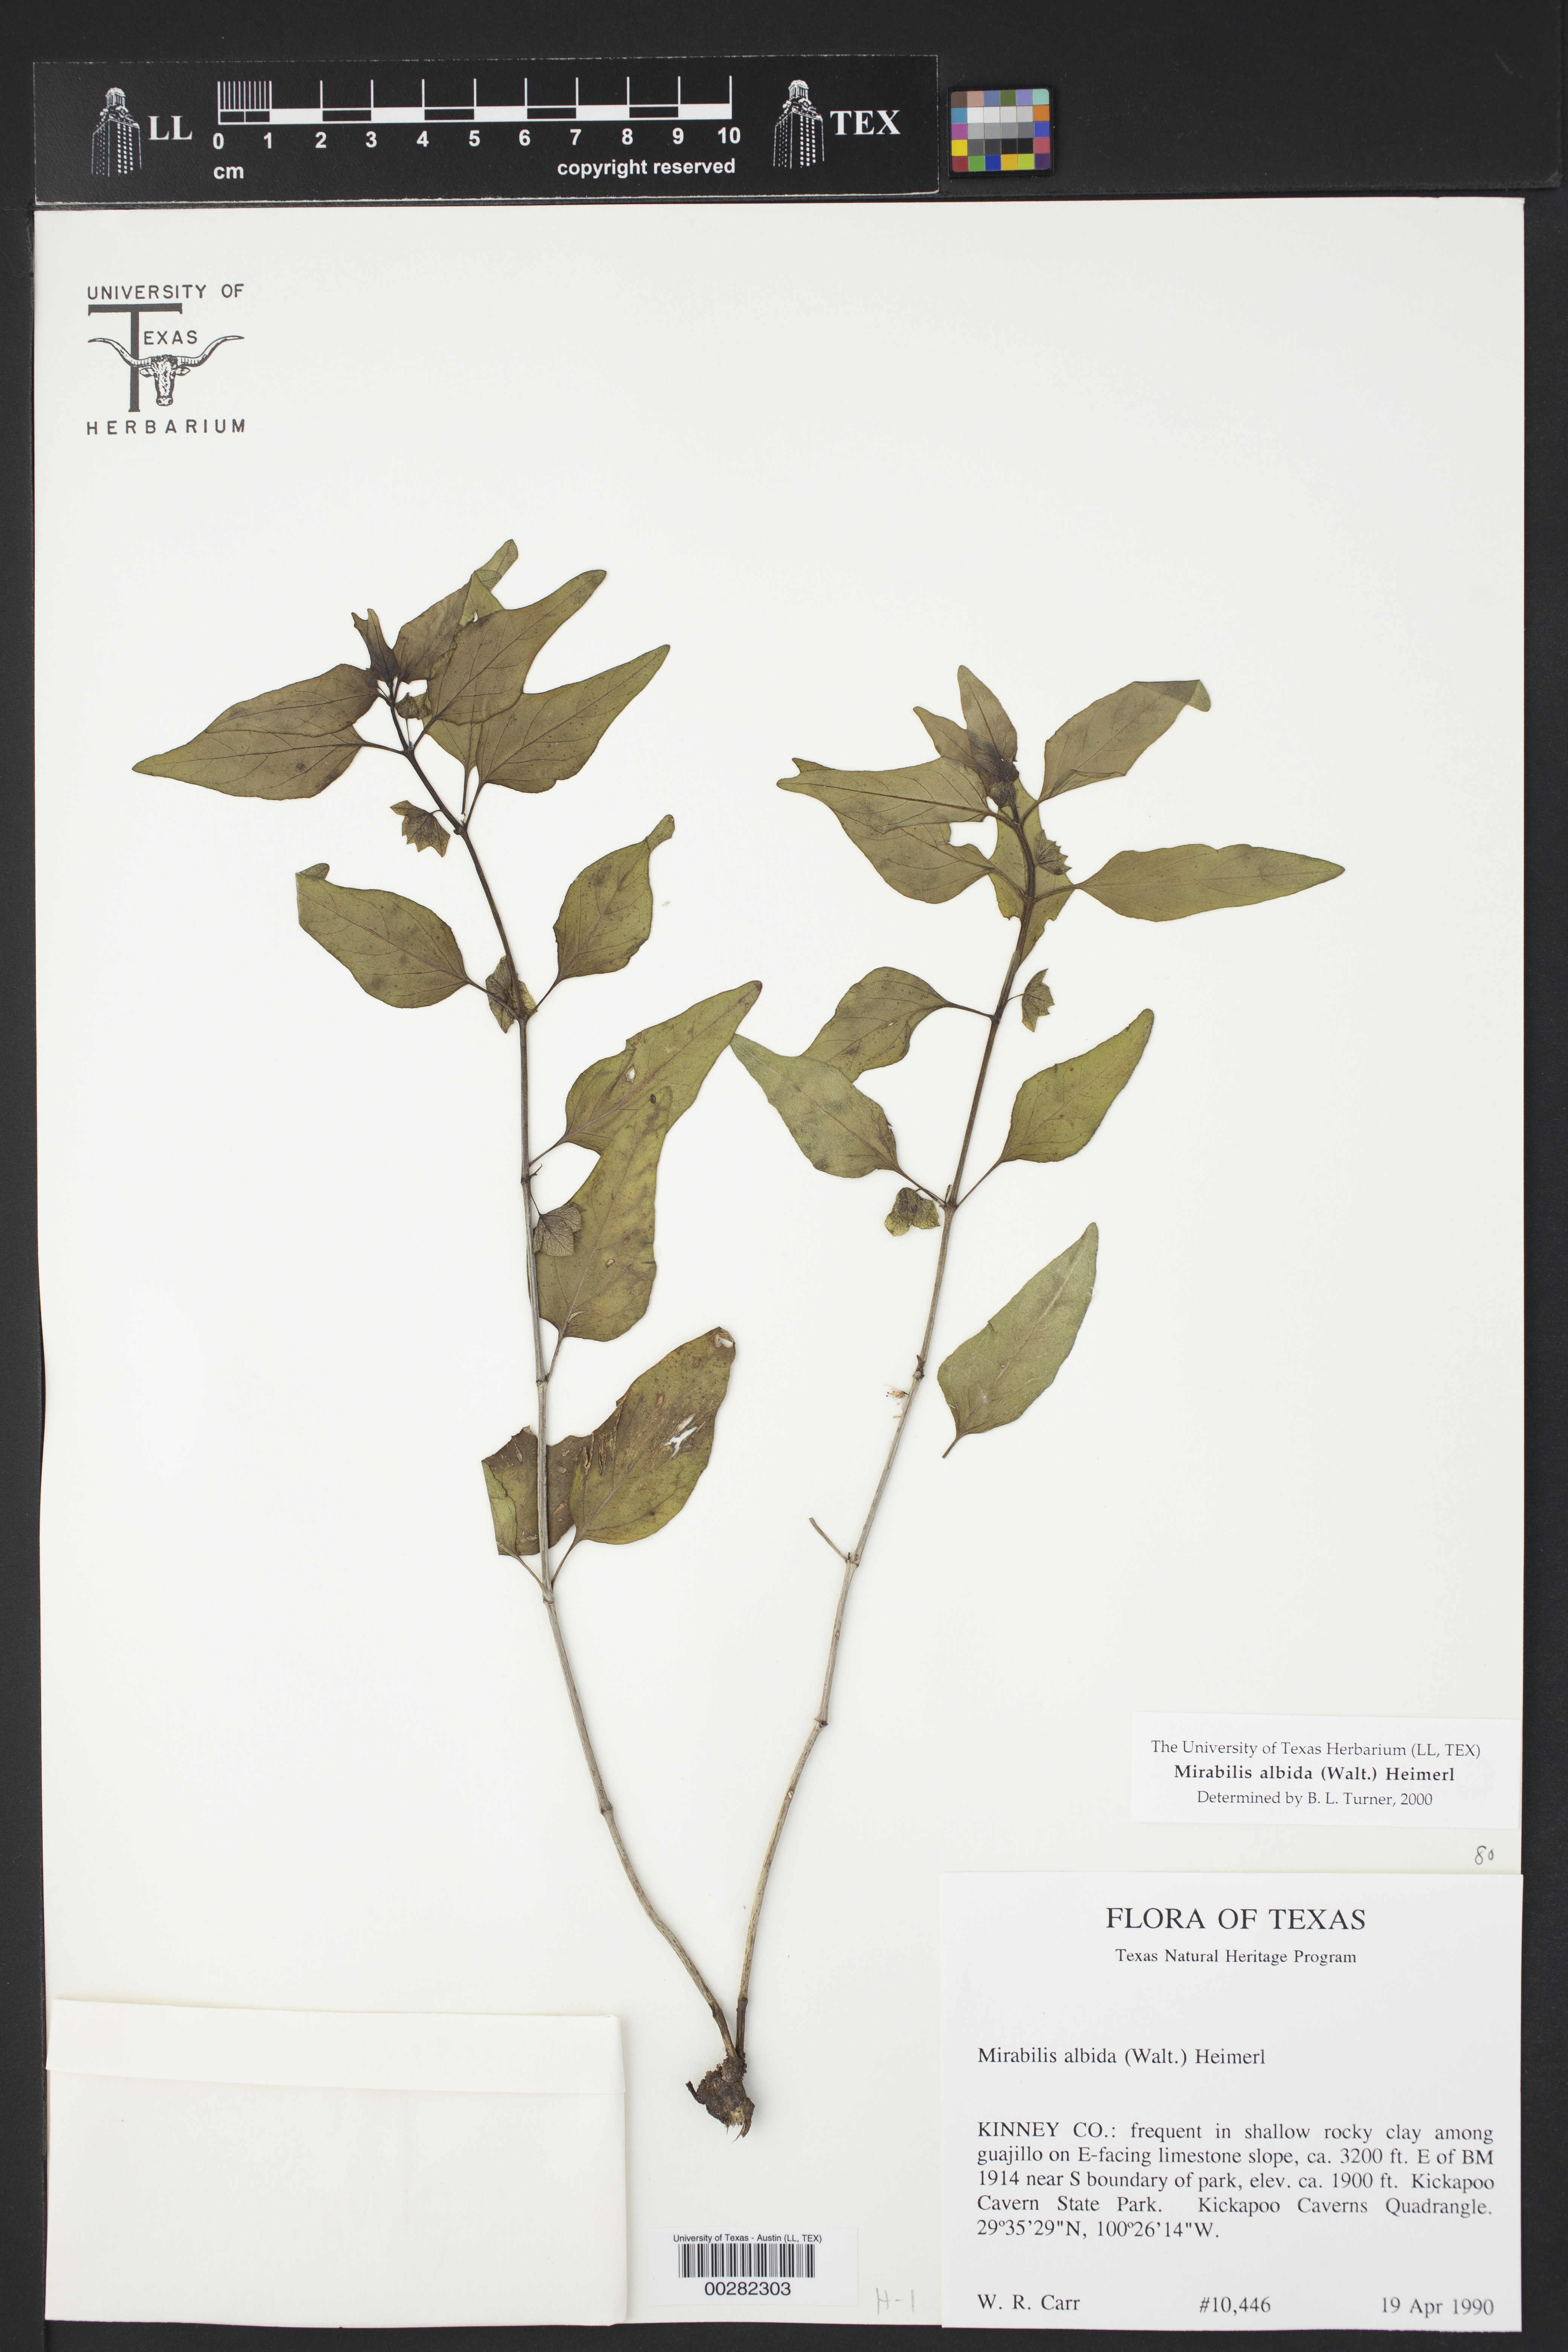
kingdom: Plantae
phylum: Tracheophyta
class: Magnoliopsida
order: Caryophyllales
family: Nyctaginaceae
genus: Mirabilis
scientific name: Mirabilis albida
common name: Hairy four-o'clock
